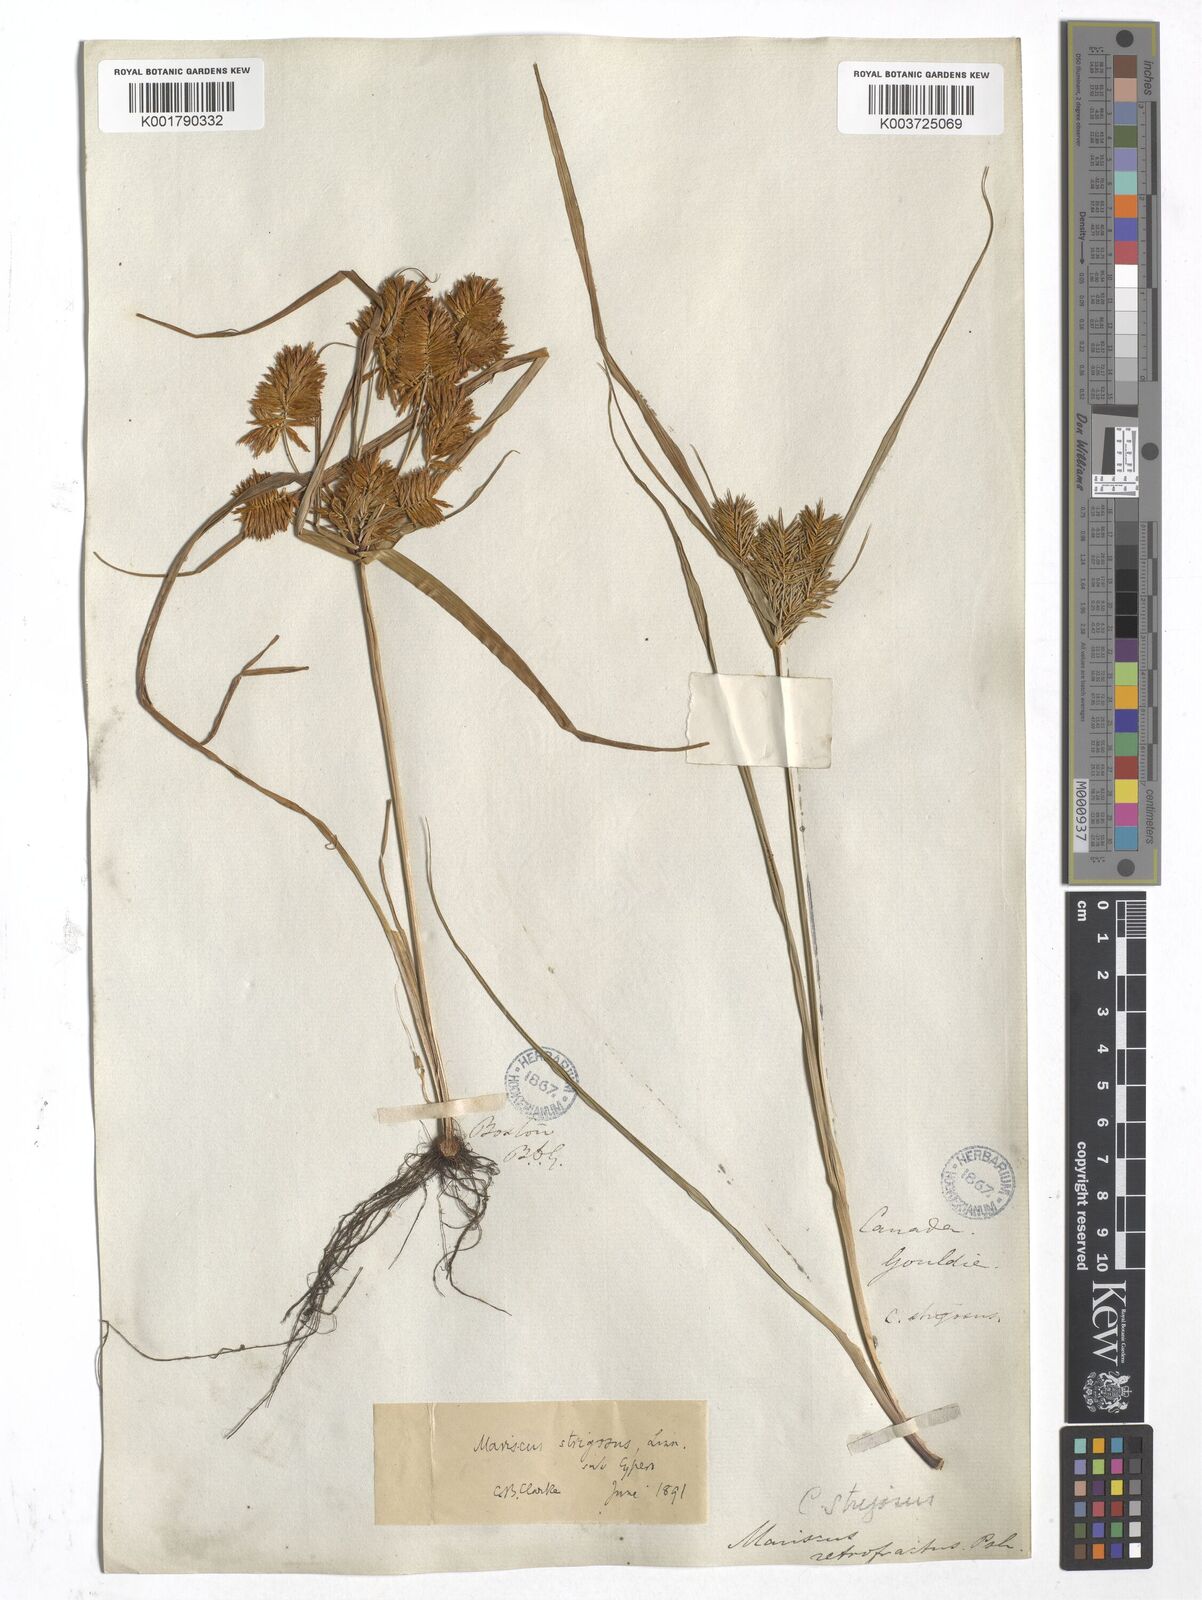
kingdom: Plantae
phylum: Tracheophyta
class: Liliopsida
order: Poales
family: Cyperaceae
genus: Cyperus
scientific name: Cyperus strigosus
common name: False nutsedge
